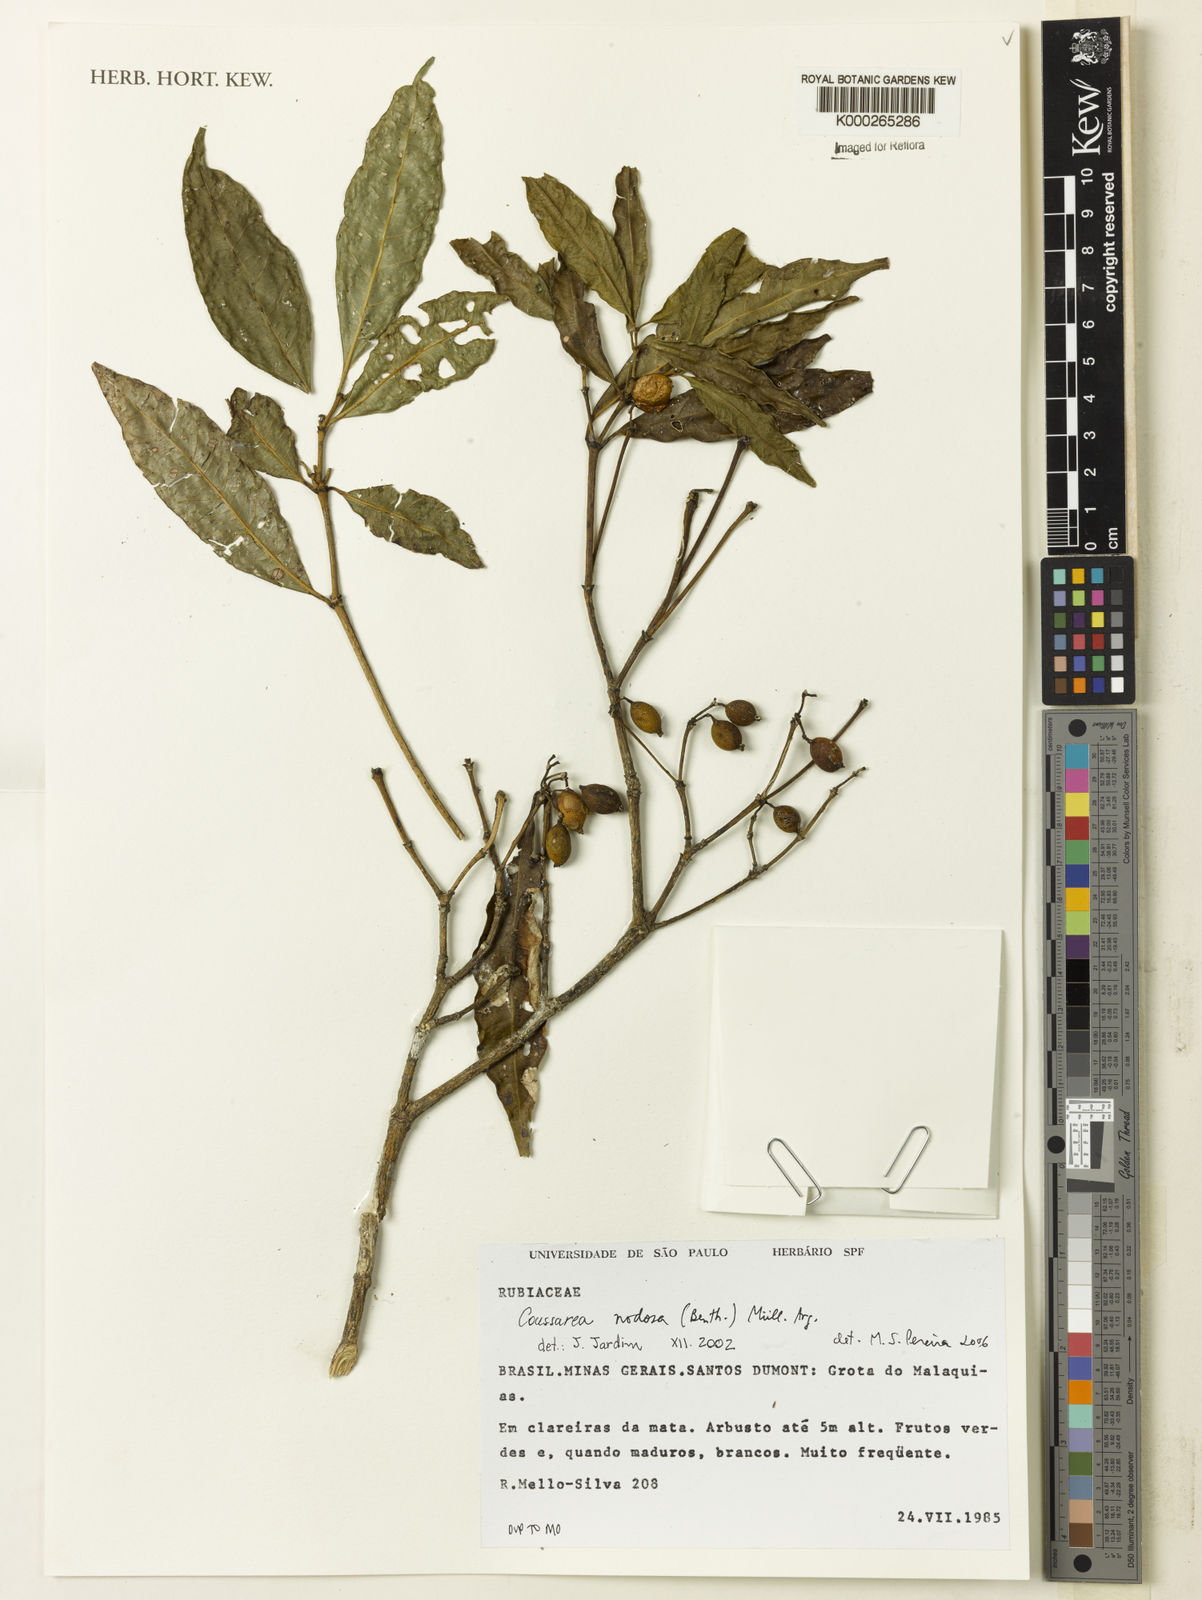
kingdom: Plantae
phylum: Tracheophyta
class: Magnoliopsida
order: Gentianales
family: Rubiaceae
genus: Coussarea
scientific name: Coussarea
